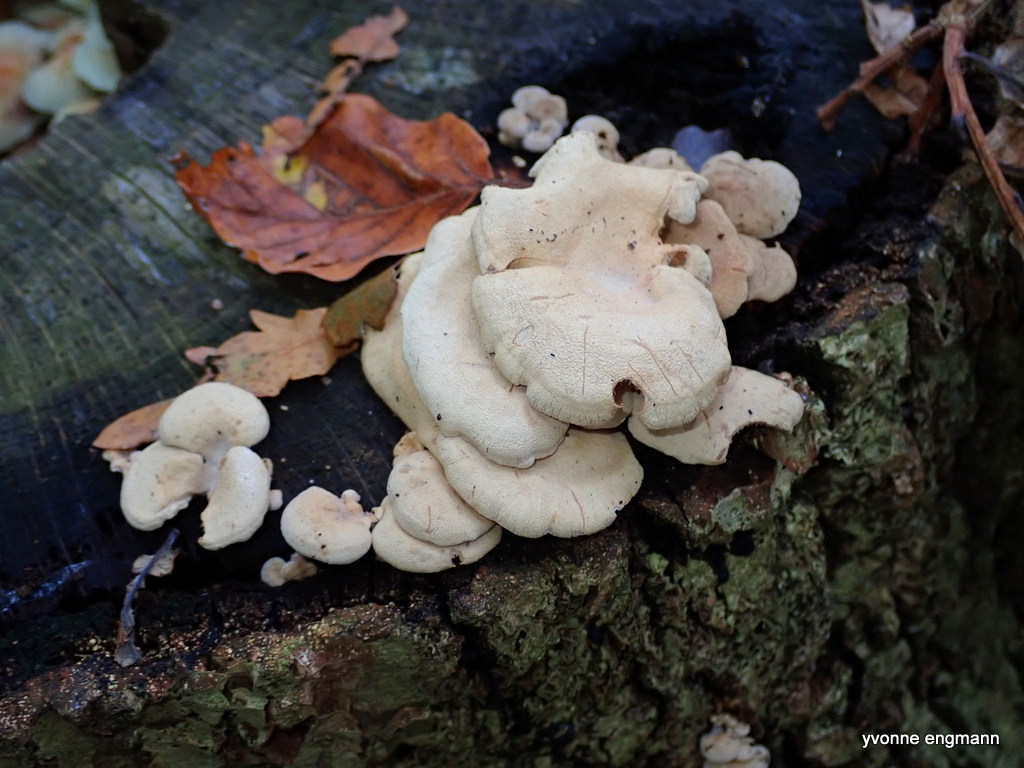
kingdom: Fungi
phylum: Basidiomycota
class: Agaricomycetes
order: Agaricales
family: Mycenaceae
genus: Panellus
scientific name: Panellus stipticus
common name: kliddet epaulethat
